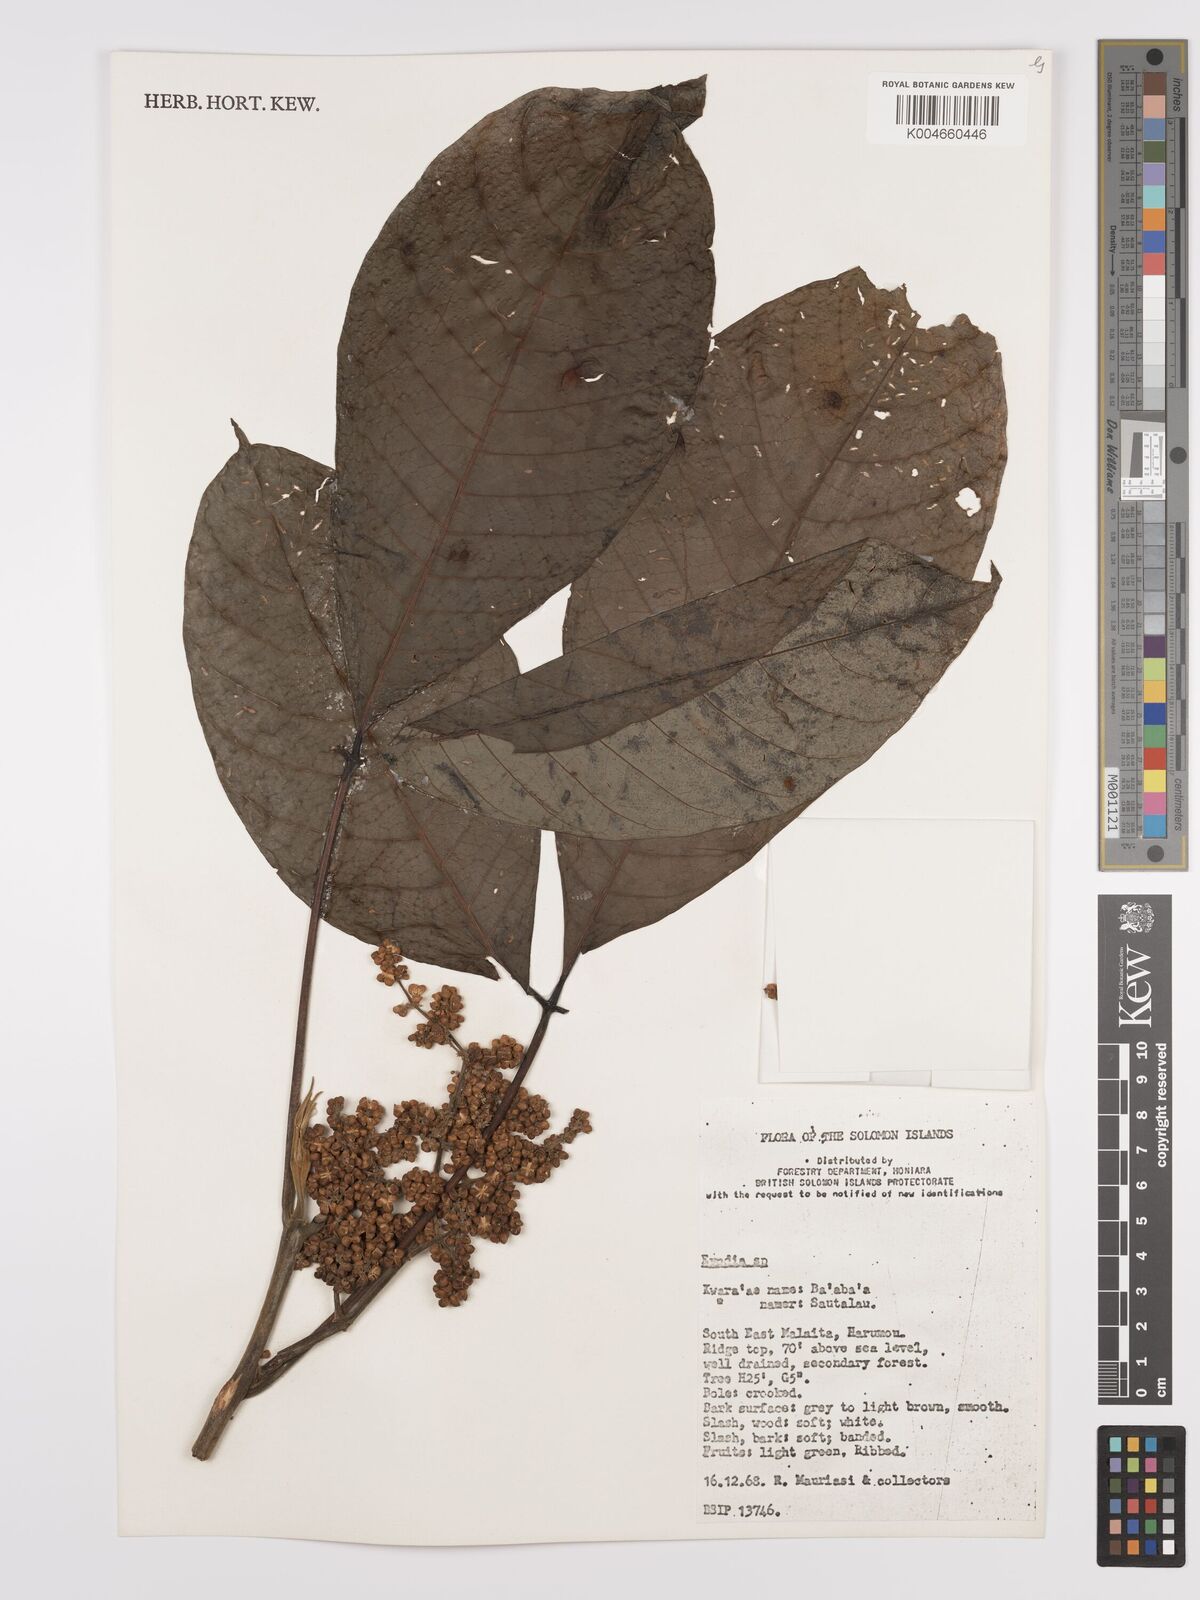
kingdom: Plantae
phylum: Tracheophyta
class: Magnoliopsida
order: Sapindales
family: Rutaceae
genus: Euodia
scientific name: Euodia
